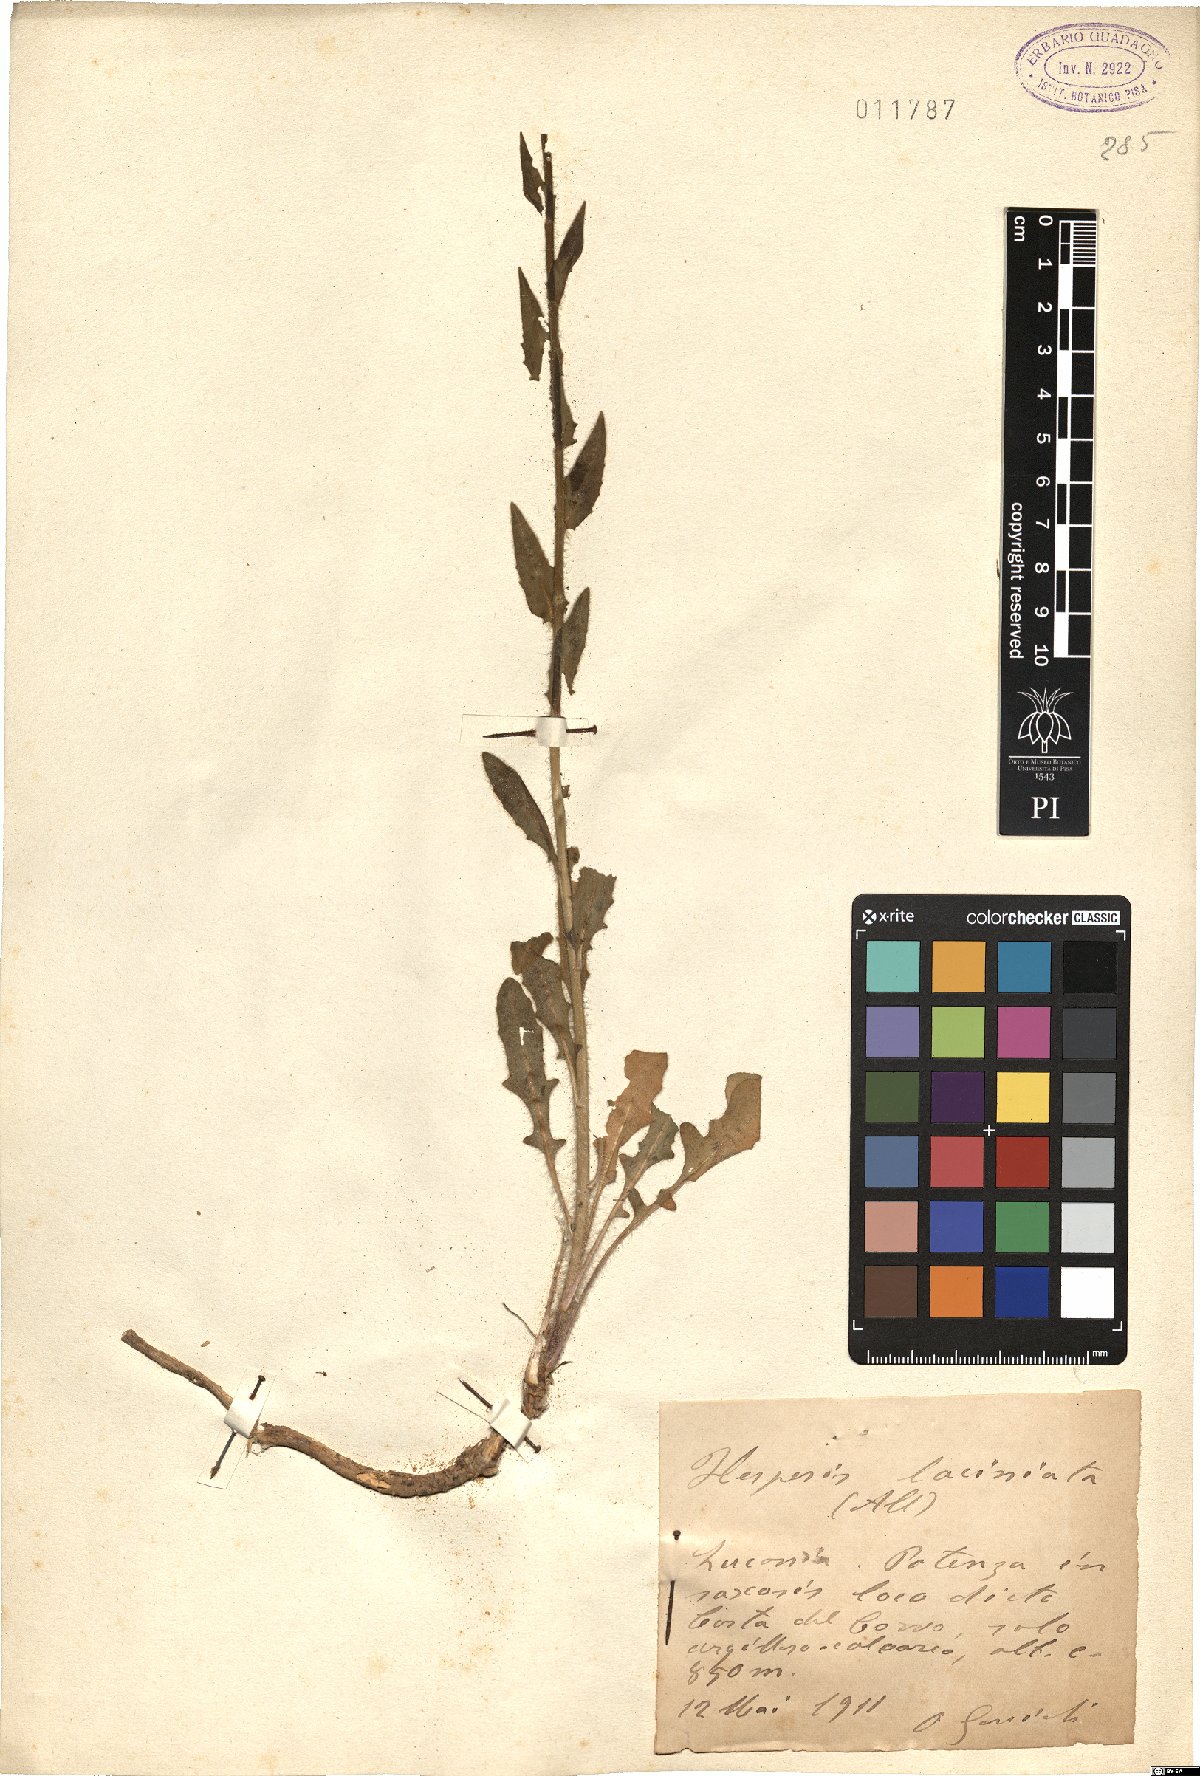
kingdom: Plantae
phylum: Tracheophyta
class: Magnoliopsida
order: Brassicales
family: Brassicaceae
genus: Hesperis
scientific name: Hesperis laciniata
